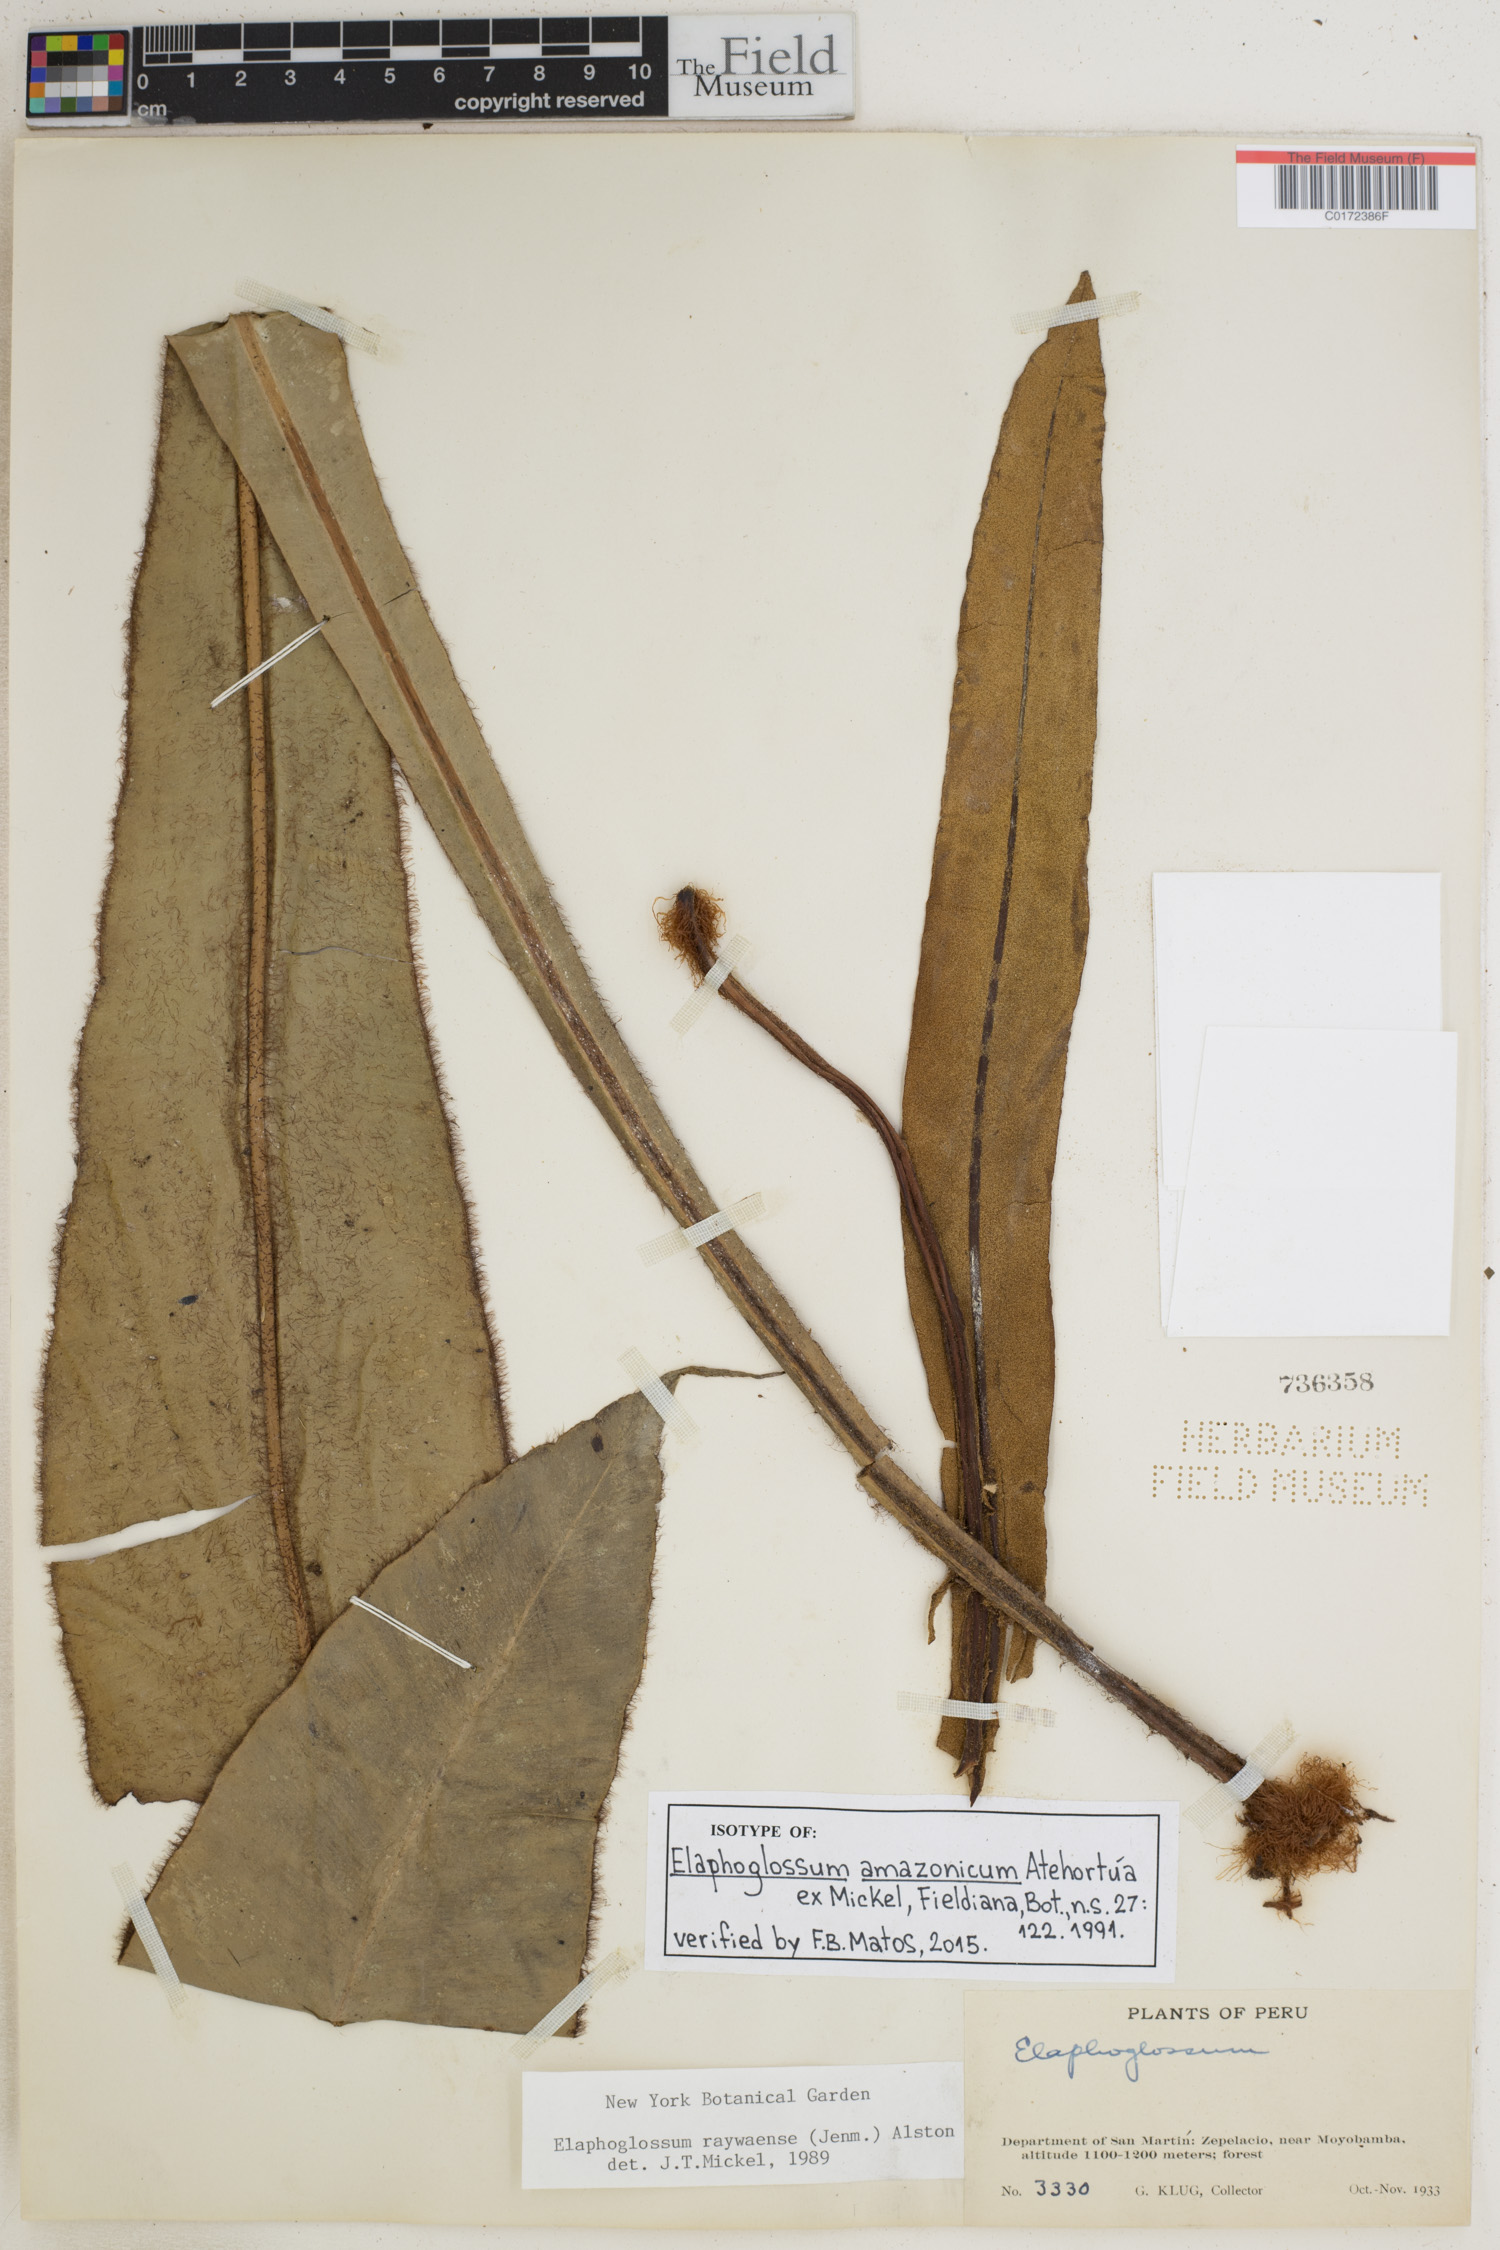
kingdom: Plantae
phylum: Tracheophyta
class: Polypodiopsida
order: Polypodiales
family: Dryopteridaceae
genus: Elaphoglossum
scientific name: Elaphoglossum amazonicum
